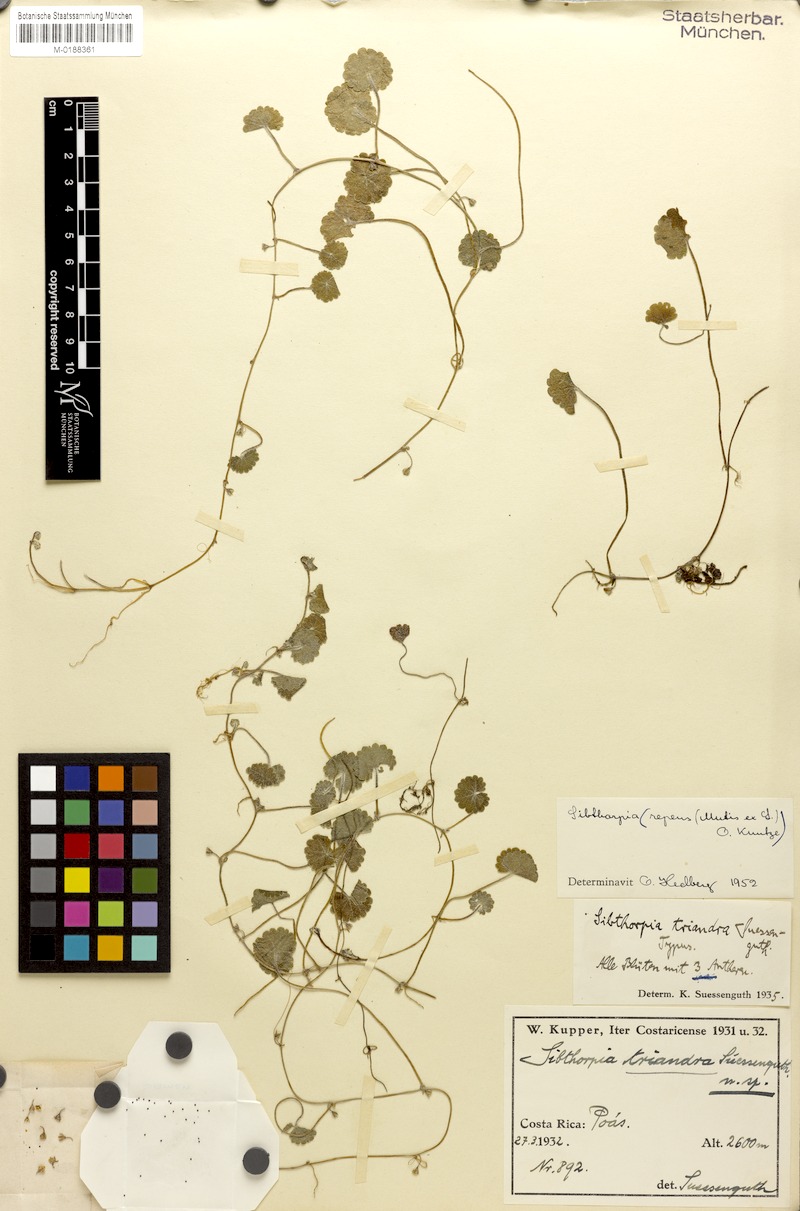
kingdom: Plantae
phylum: Tracheophyta
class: Magnoliopsida
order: Lamiales
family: Plantaginaceae
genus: Sibthorpia
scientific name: Sibthorpia repens
